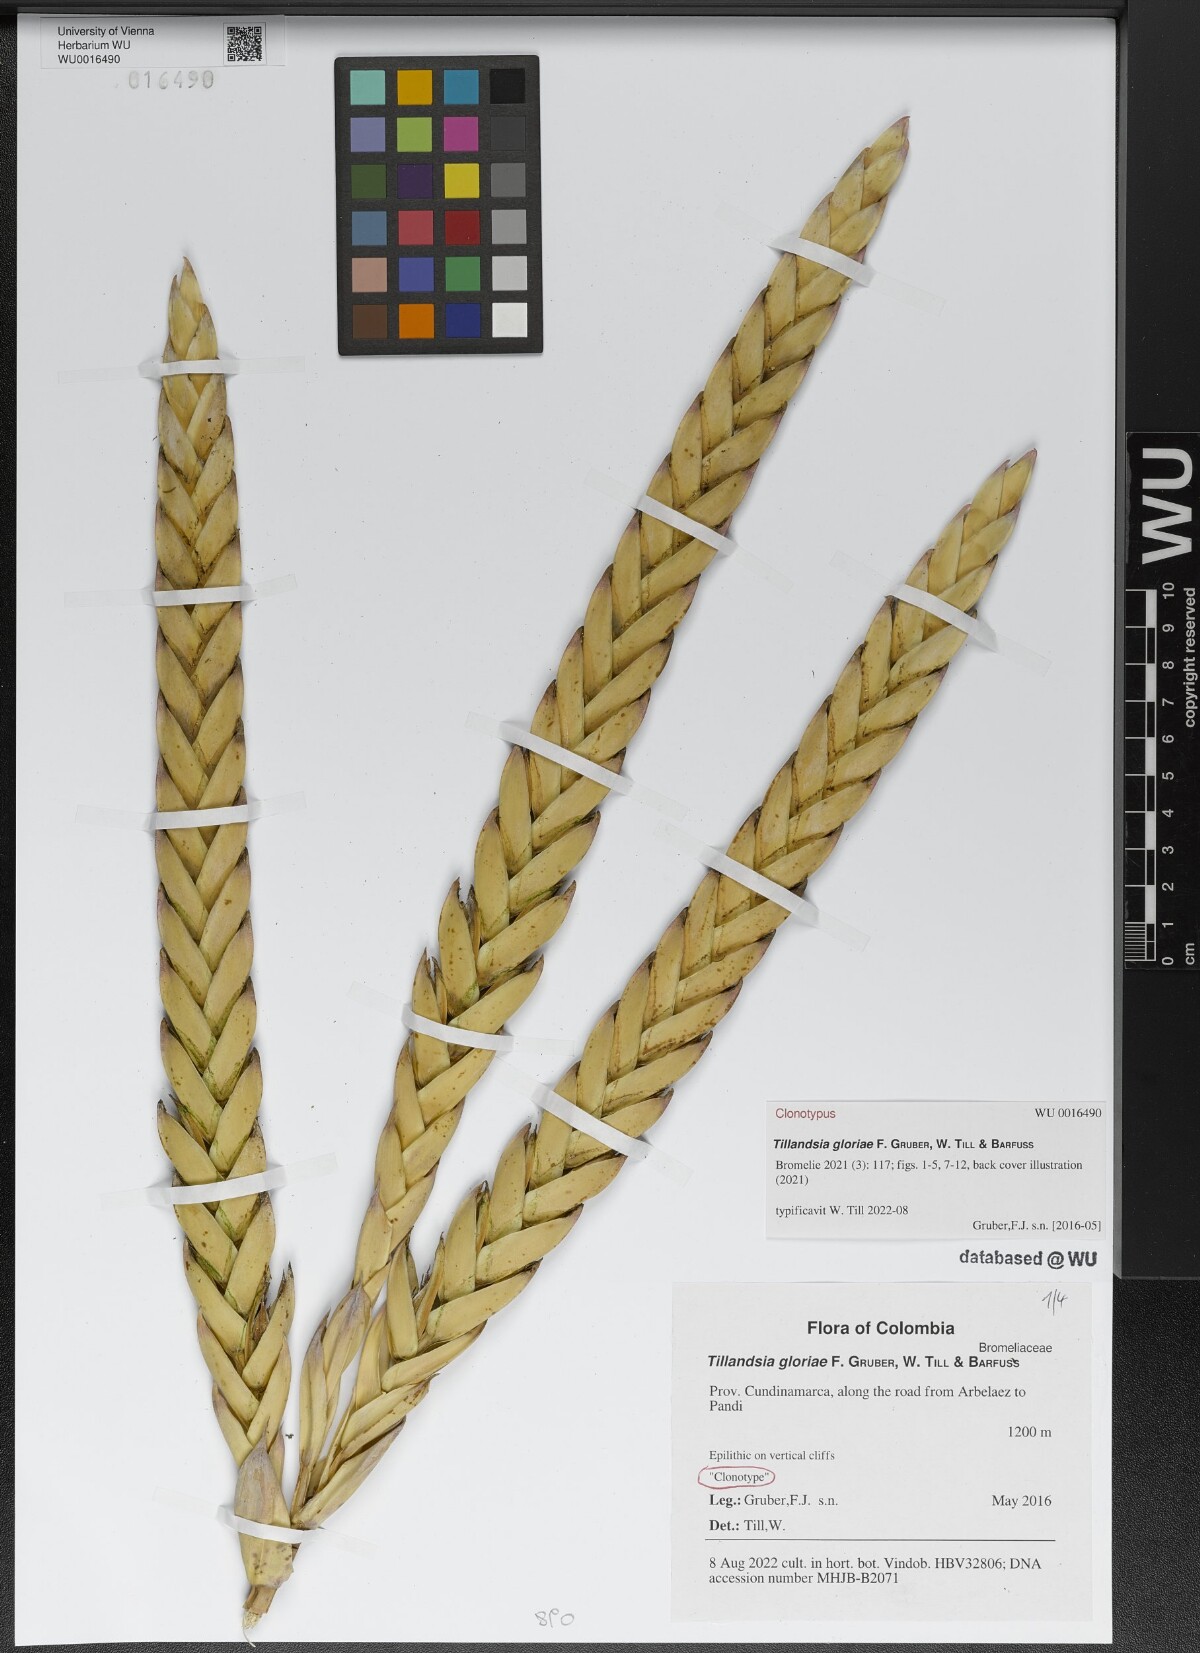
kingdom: Plantae
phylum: Tracheophyta
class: Liliopsida
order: Poales
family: Bromeliaceae
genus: Tillandsia
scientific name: Tillandsia
